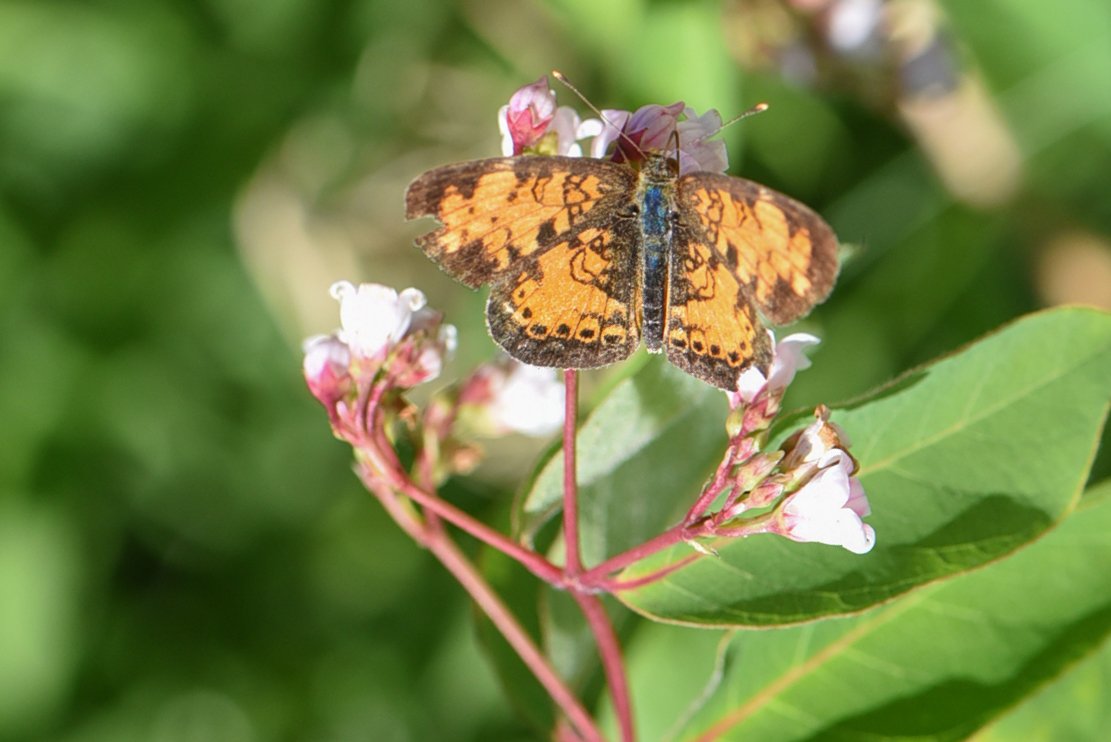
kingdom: Animalia
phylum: Arthropoda
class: Insecta
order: Lepidoptera
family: Nymphalidae
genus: Phyciodes
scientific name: Phyciodes tharos
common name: Northern Crescent
